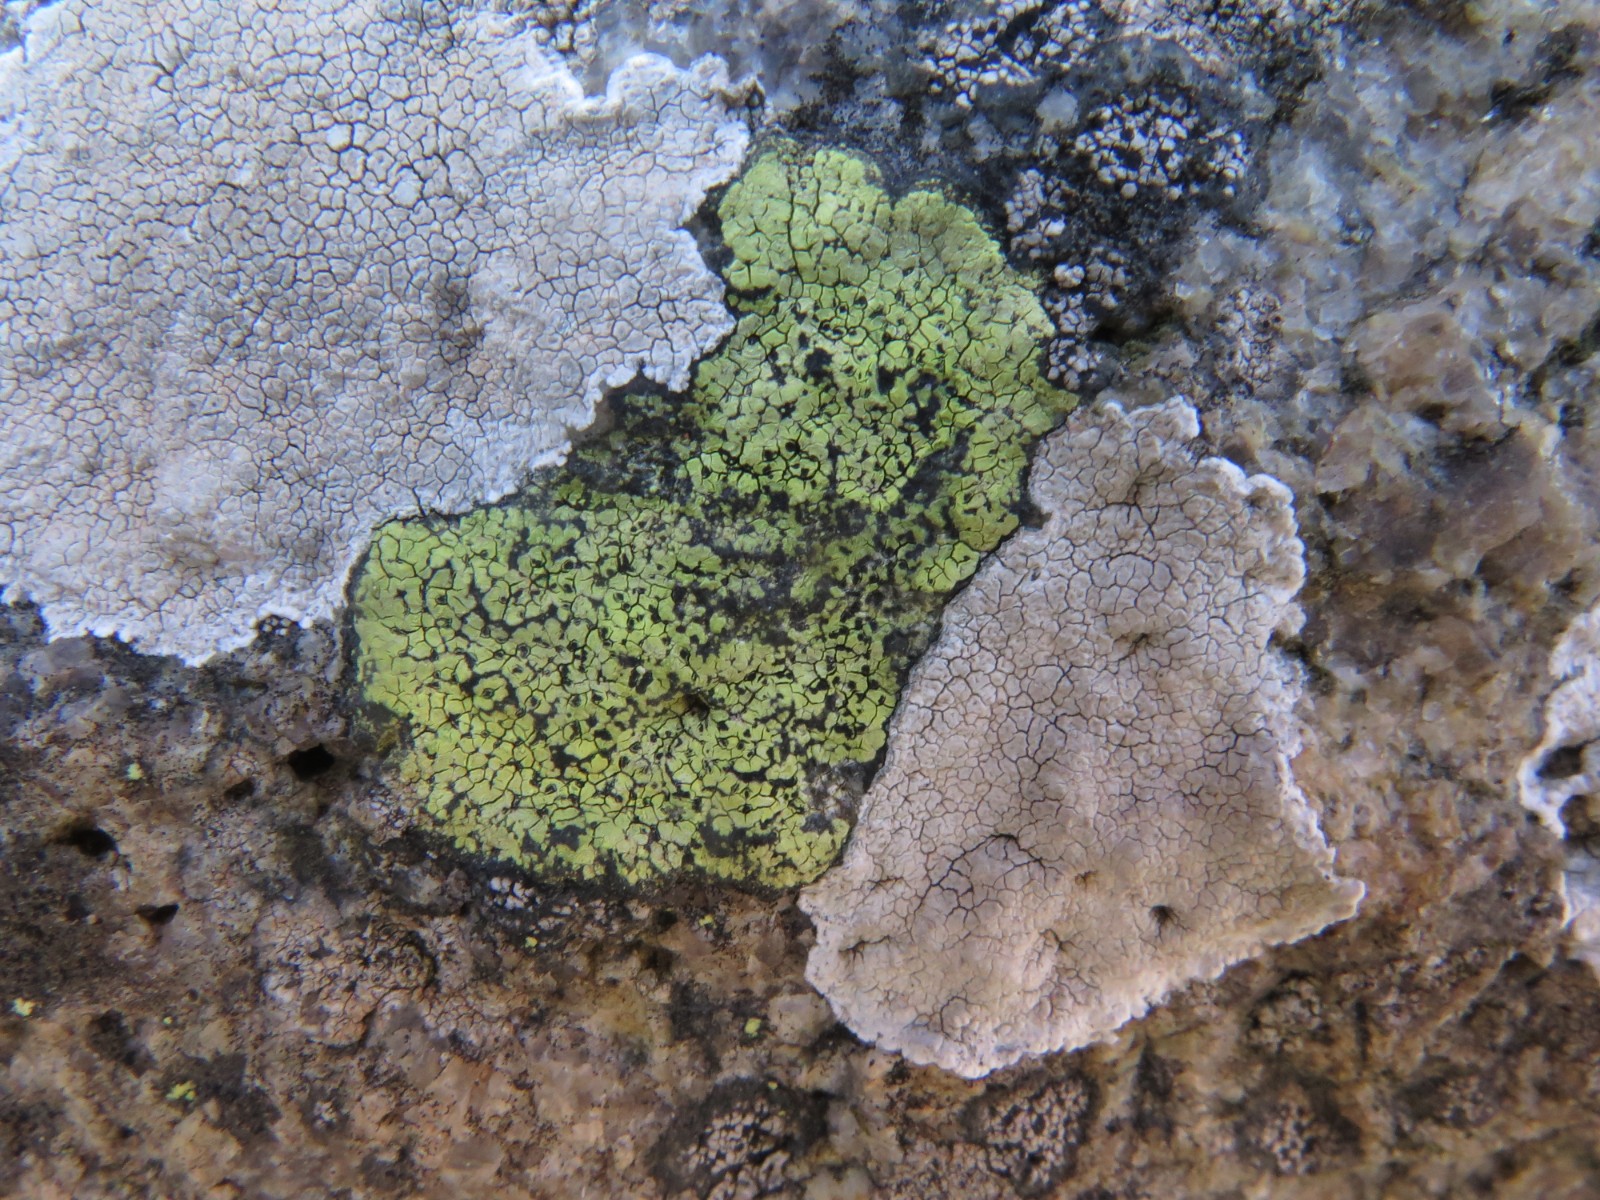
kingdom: Fungi
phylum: Ascomycota
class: Lecanoromycetes
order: Rhizocarpales
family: Rhizocarpaceae
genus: Rhizocarpon
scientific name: Rhizocarpon geographicum
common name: gulgrøn landkortlav
